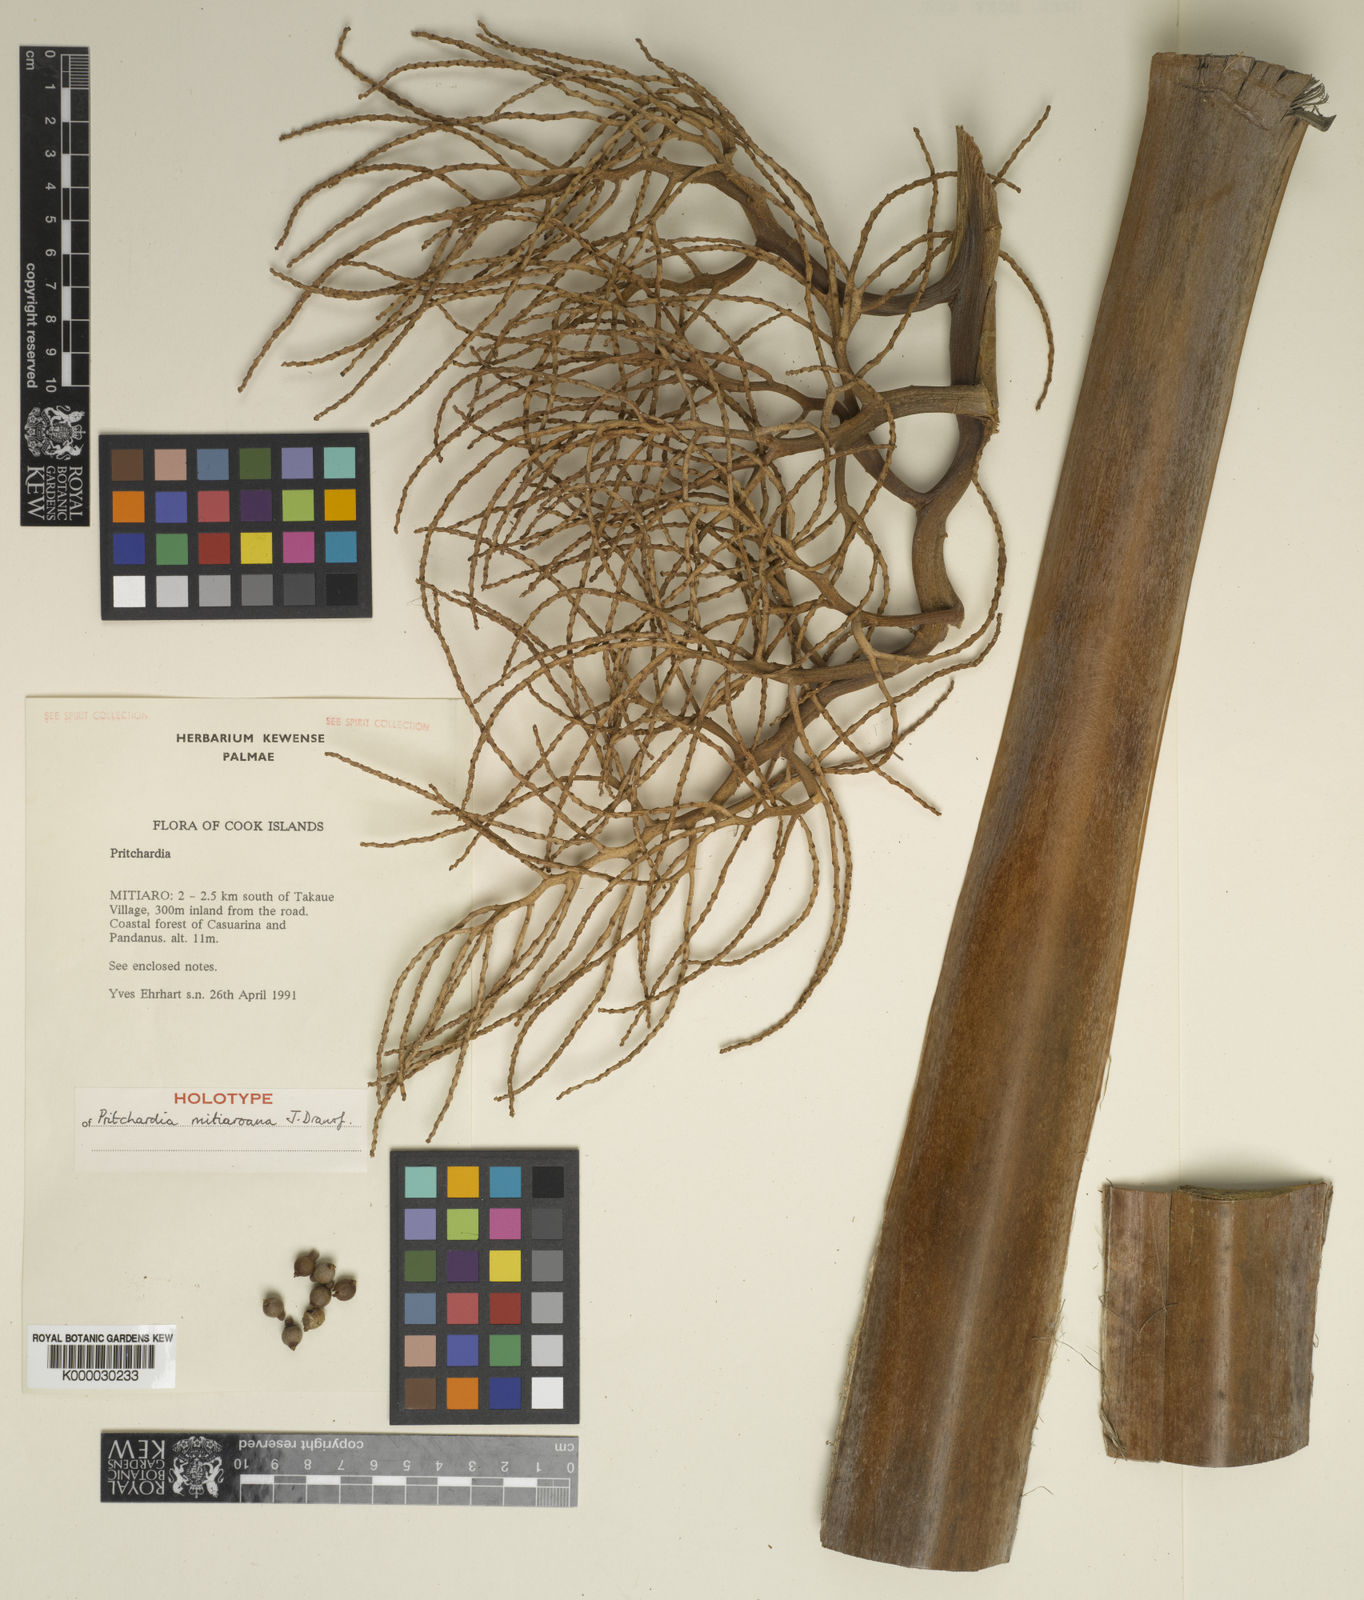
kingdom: Plantae
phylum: Tracheophyta
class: Liliopsida
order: Arecales
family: Arecaceae
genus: Pritchardia
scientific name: Pritchardia mitiaroana
